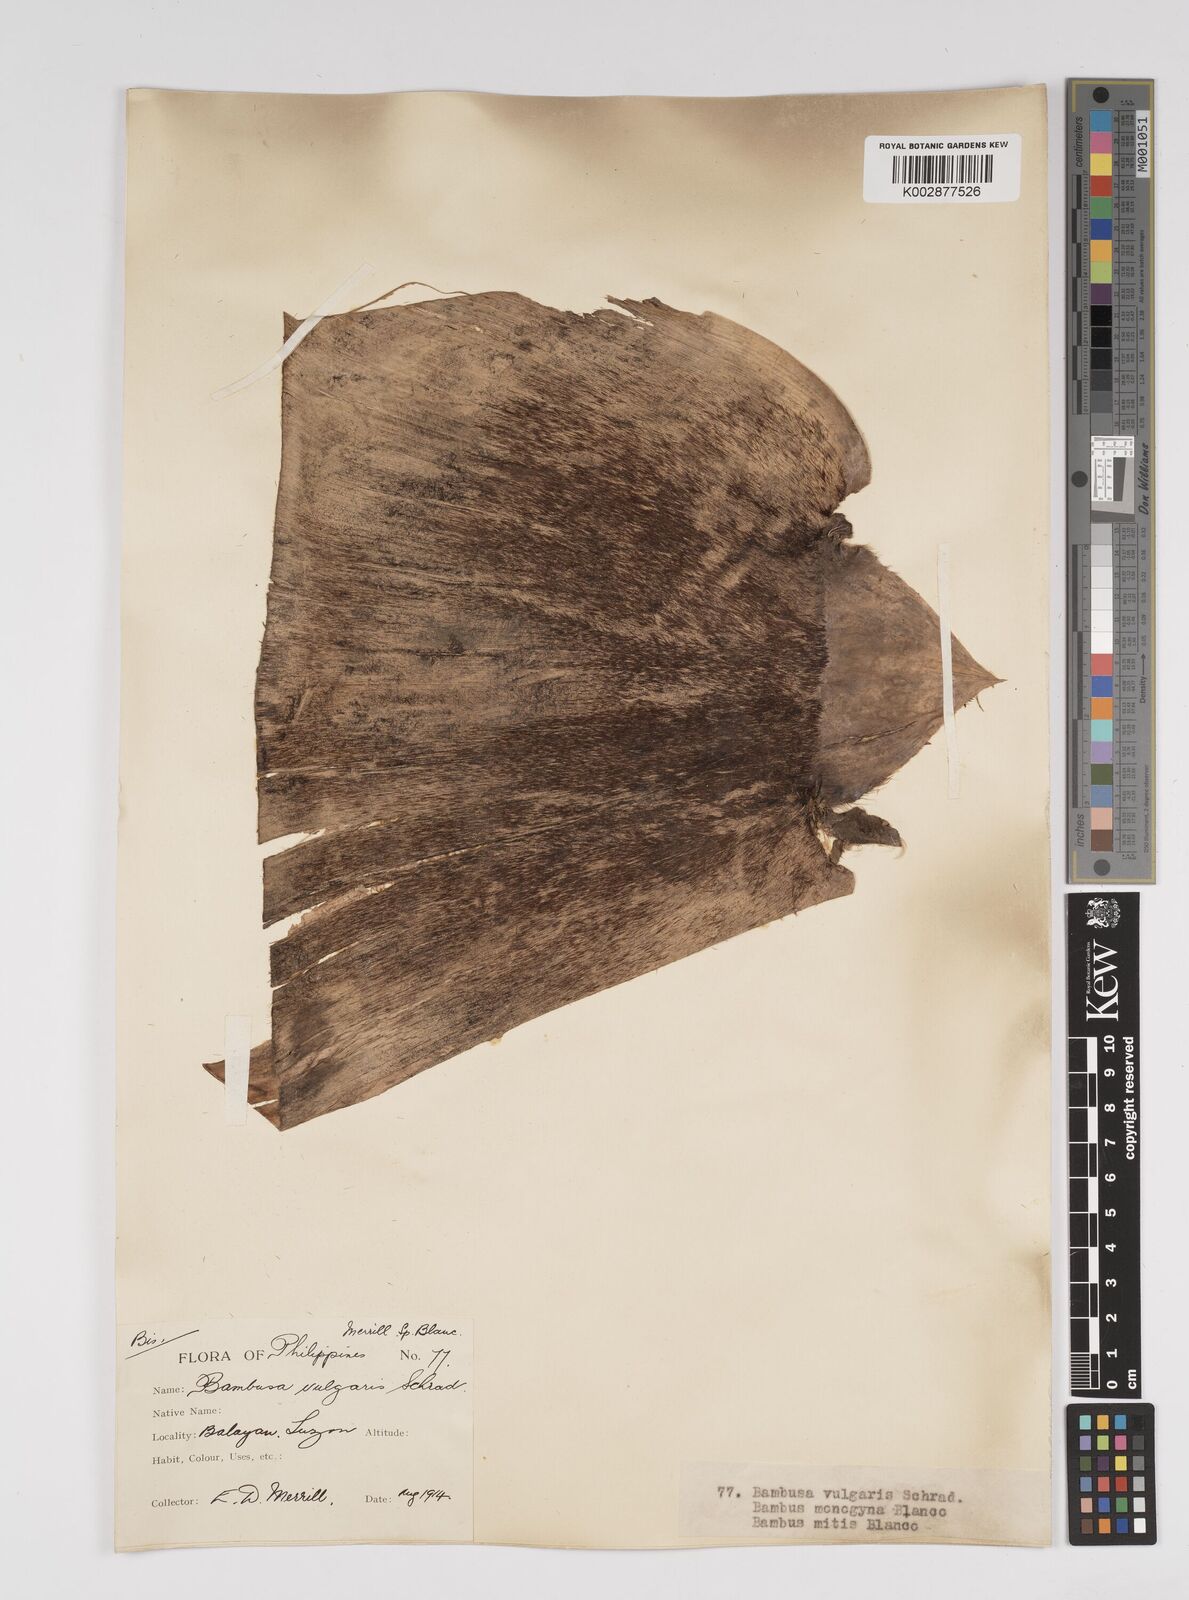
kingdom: Plantae
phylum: Tracheophyta
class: Liliopsida
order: Poales
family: Poaceae
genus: Bambusa
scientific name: Bambusa vulgaris
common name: Common bamboo
